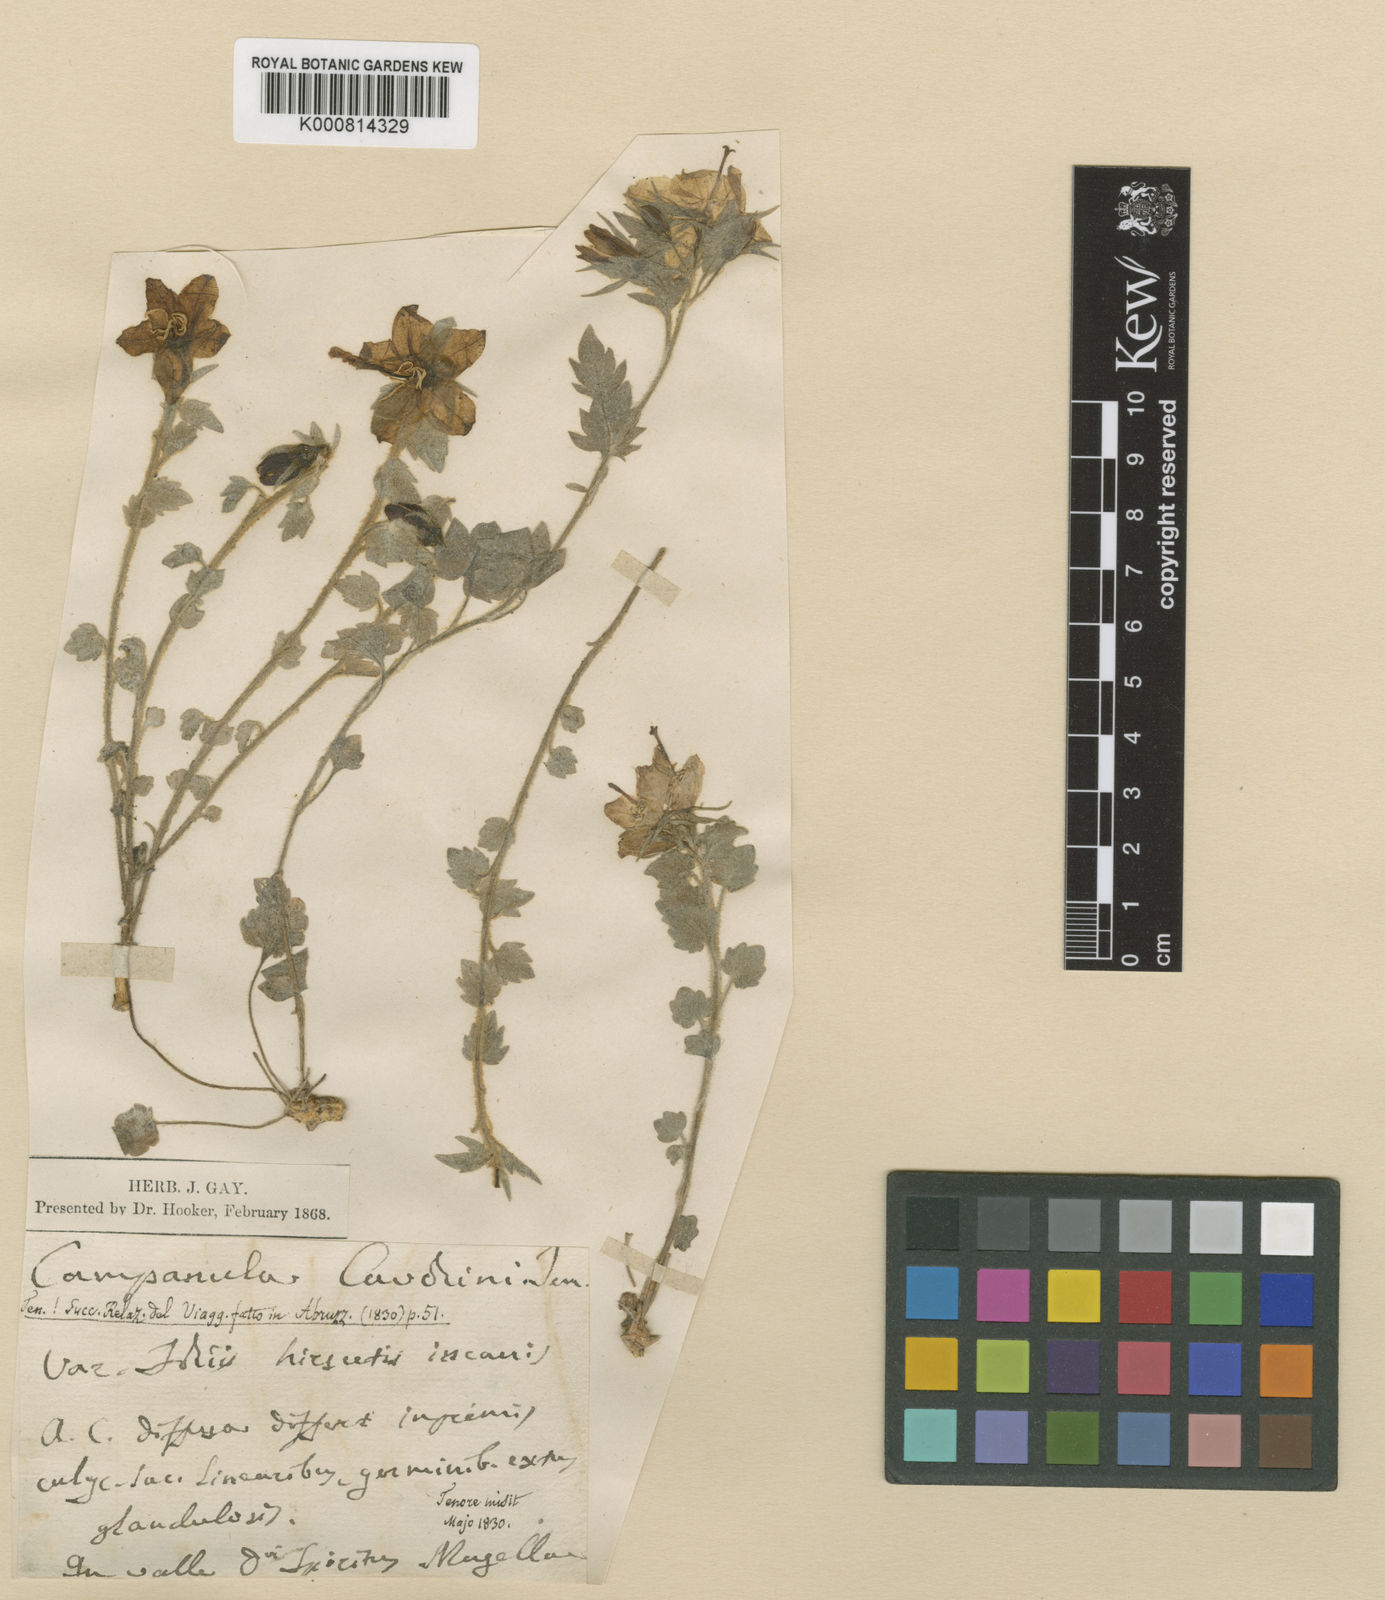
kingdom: Plantae
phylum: Tracheophyta
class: Magnoliopsida
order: Asterales
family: Campanulaceae
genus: Campanula
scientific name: Campanula fragilis
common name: Italian bellflower
